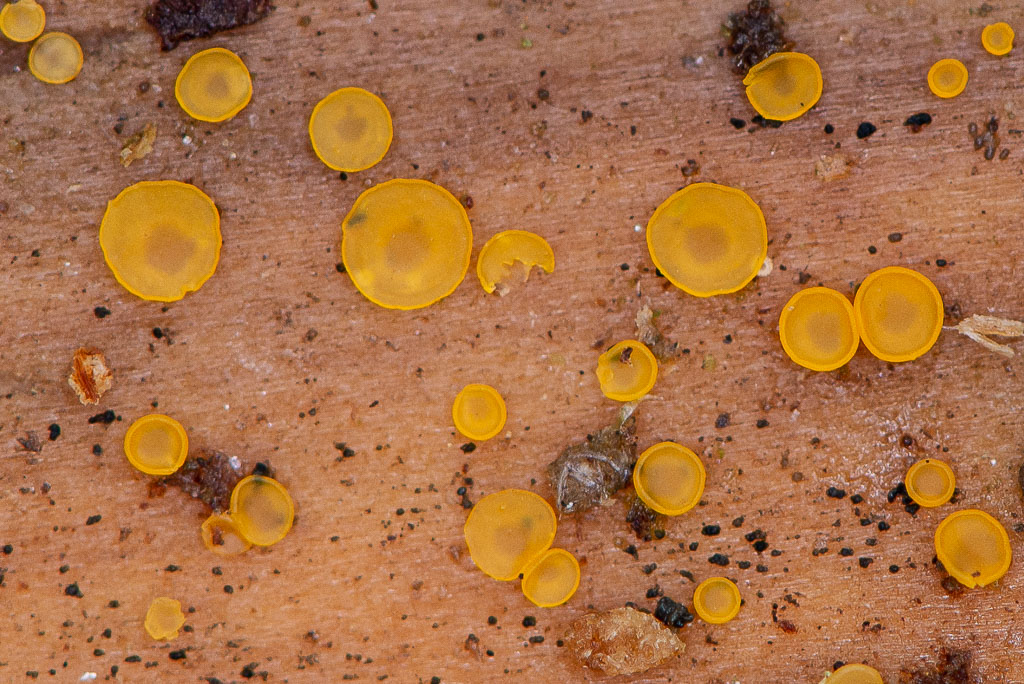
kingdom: Fungi
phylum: Ascomycota
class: Orbiliomycetes
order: Orbiliales
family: Orbiliaceae
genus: Orbilia
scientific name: Orbilia xanthostigma
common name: krumsporet voksskive
